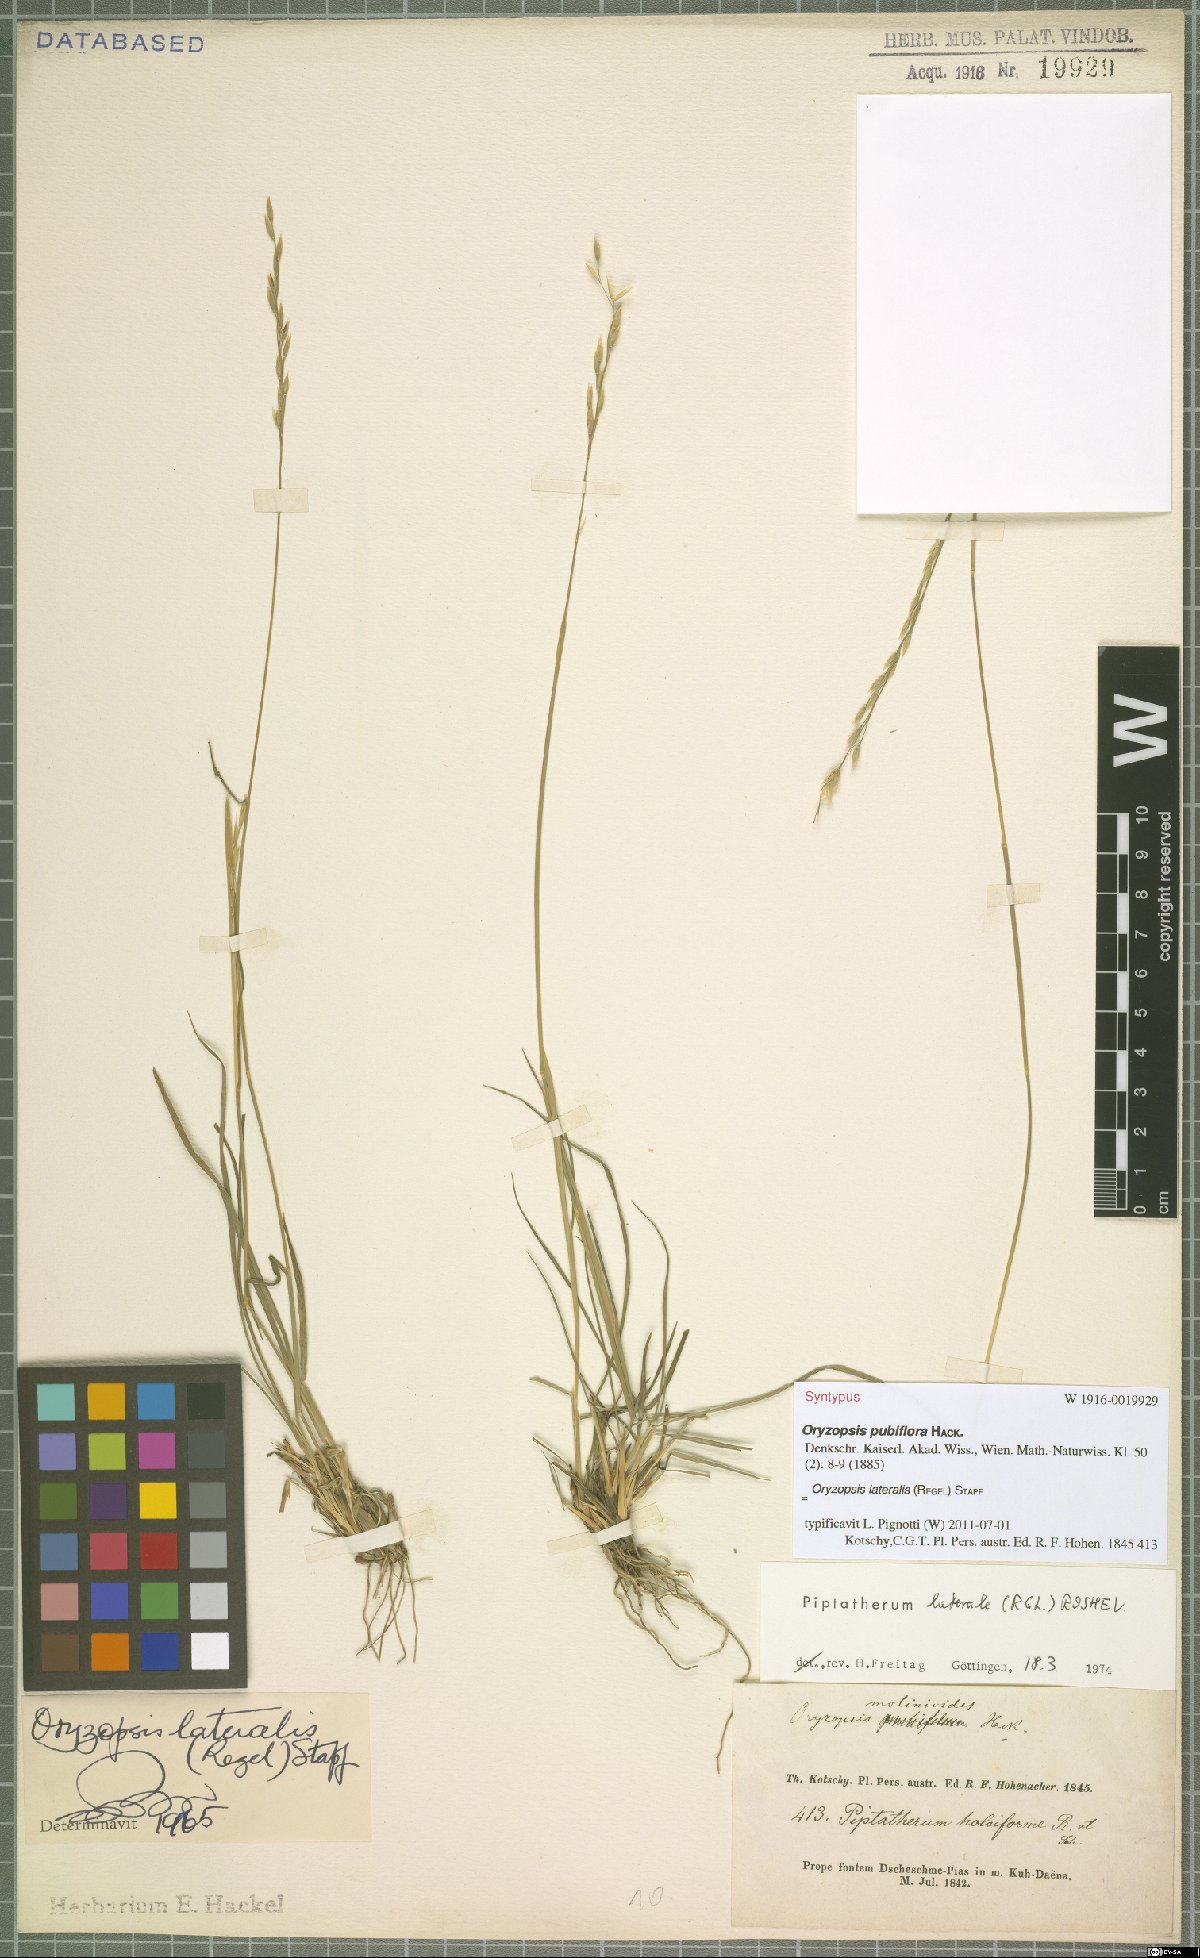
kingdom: Plantae
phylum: Tracheophyta
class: Liliopsida
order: Poales
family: Poaceae
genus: Piptatherum
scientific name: Piptatherum laterale
